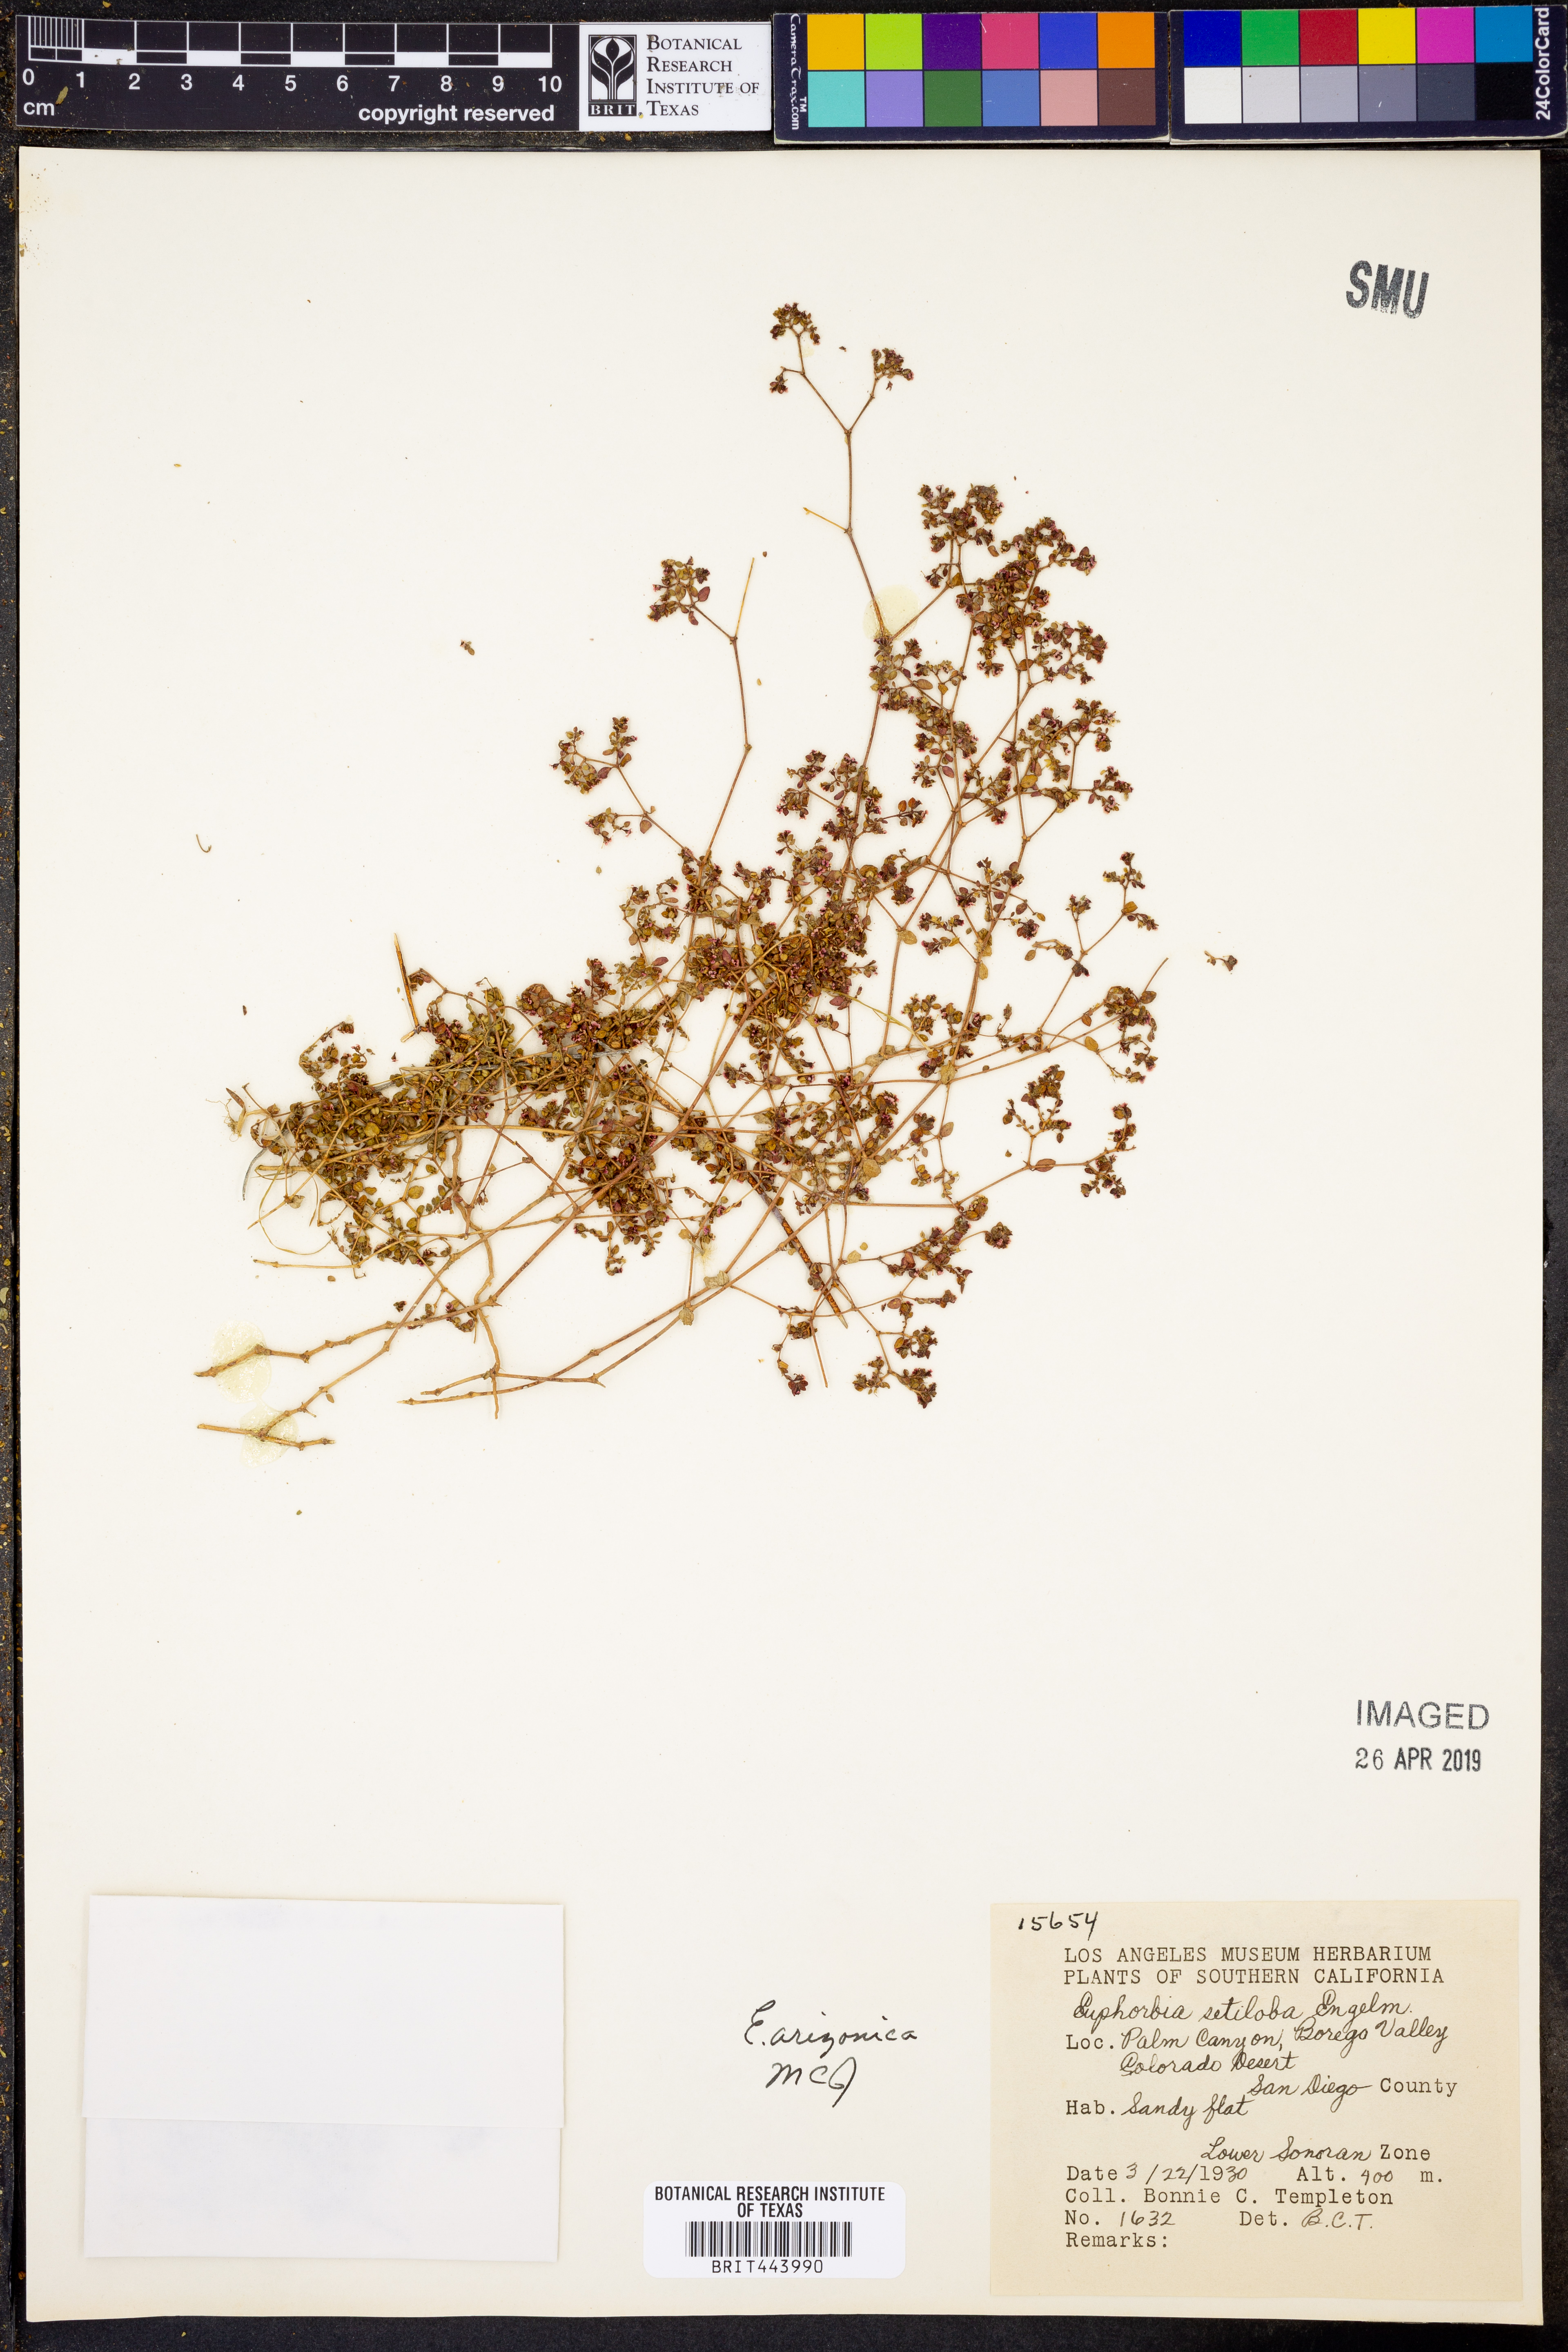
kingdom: Plantae
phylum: Tracheophyta
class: Magnoliopsida
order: Malpighiales
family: Euphorbiaceae
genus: Euphorbia
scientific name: Euphorbia setiloba
